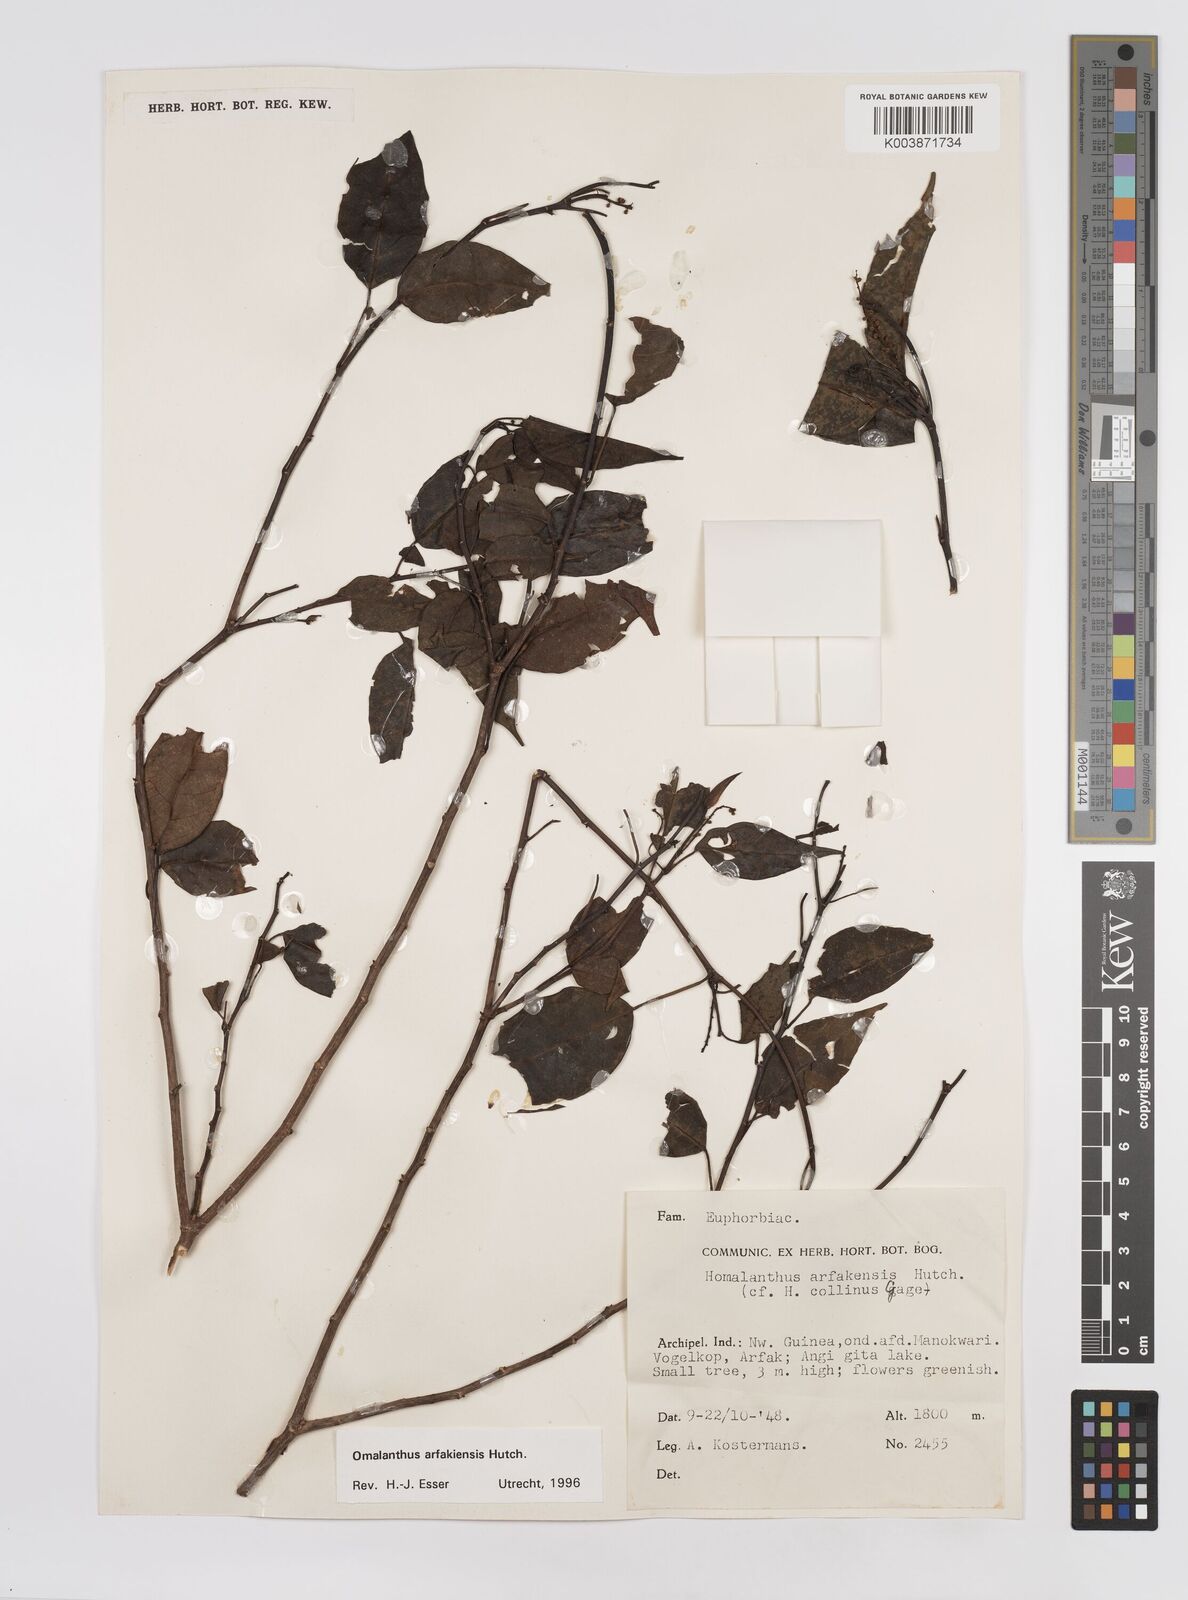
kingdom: Plantae
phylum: Tracheophyta
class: Magnoliopsida
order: Malpighiales
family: Euphorbiaceae
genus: Homalanthus
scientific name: Homalanthus arfakiensis
